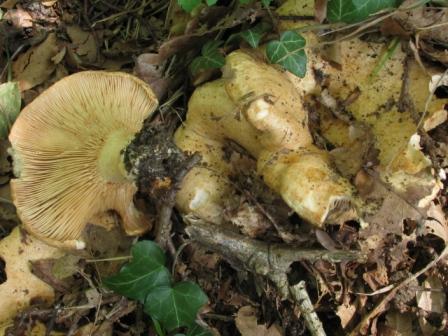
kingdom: Fungi
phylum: Basidiomycota
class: Agaricomycetes
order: Russulales
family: Russulaceae
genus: Lactarius
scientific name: Lactarius acerrimus
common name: brændende mælkehat
